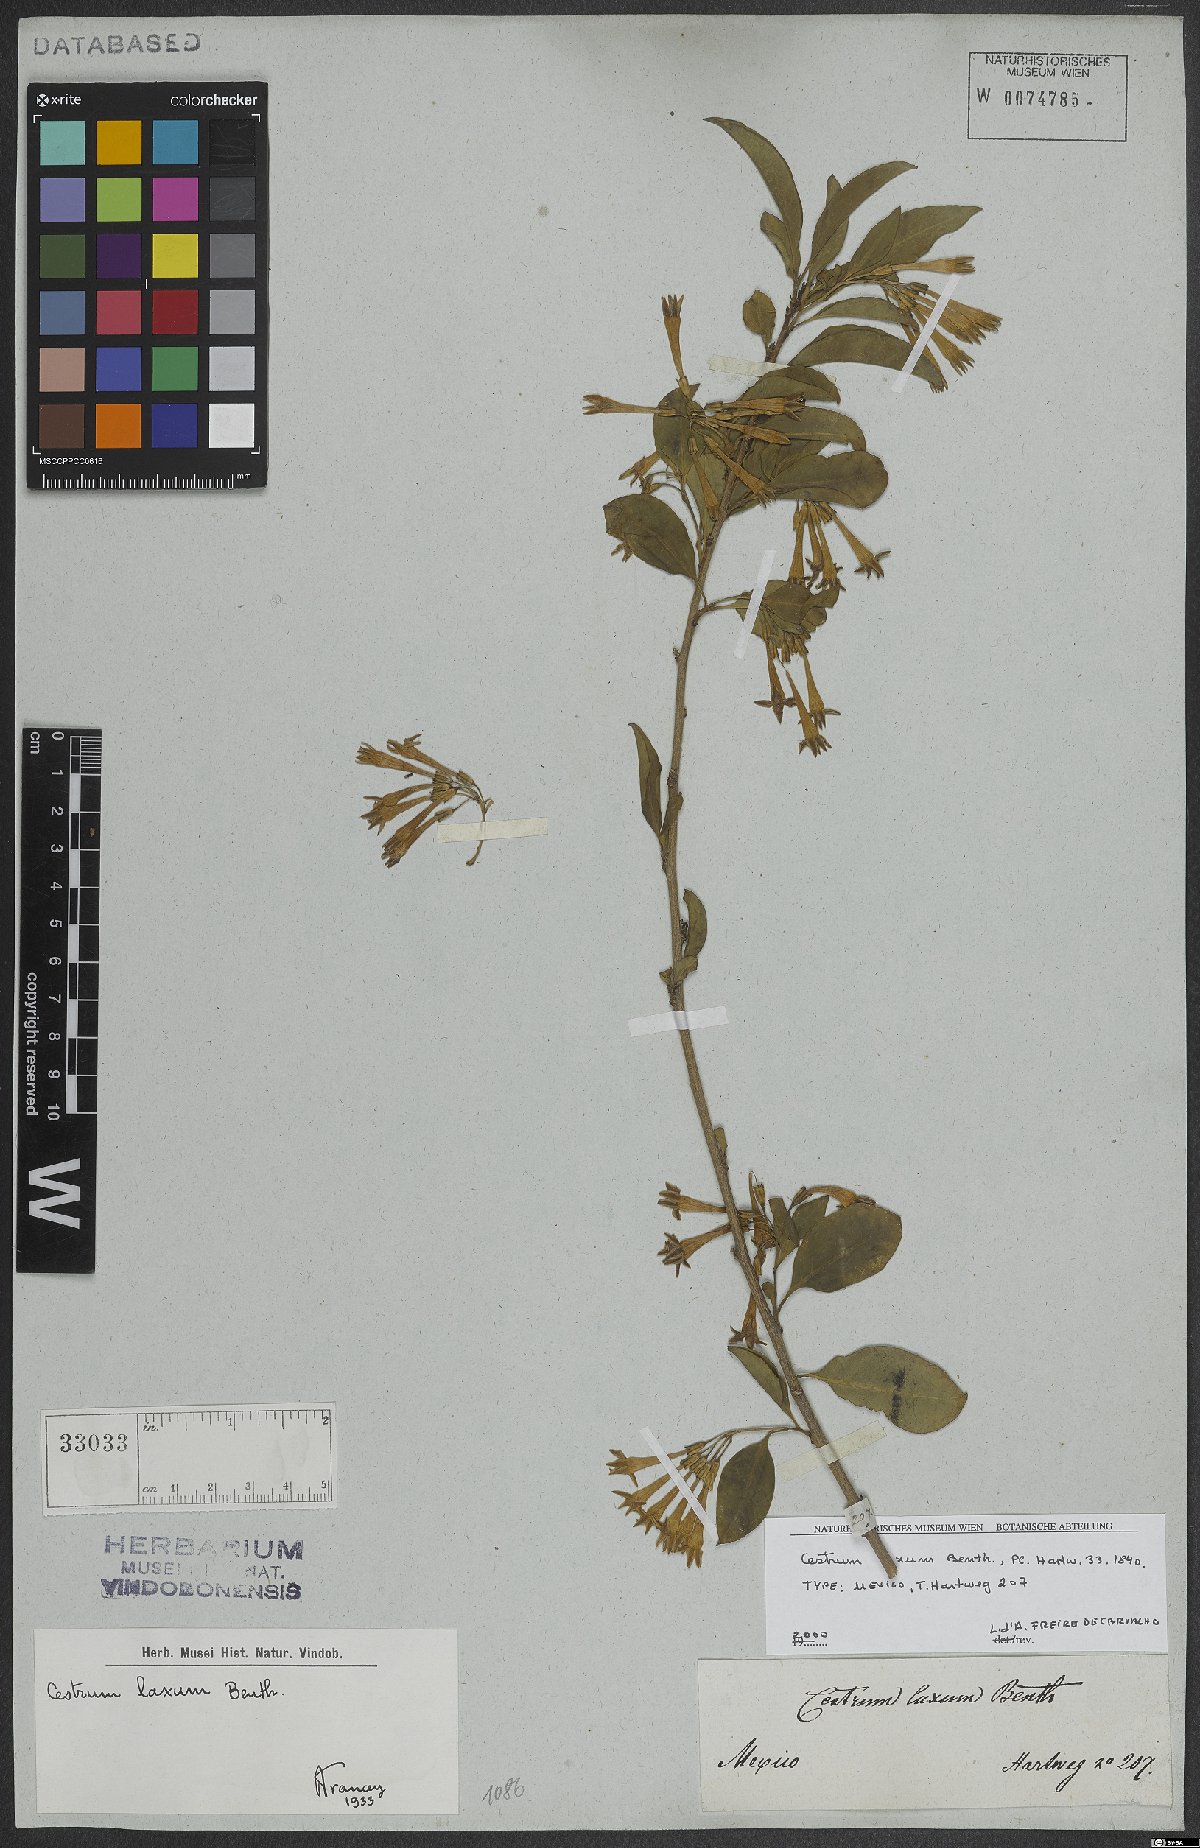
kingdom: Plantae
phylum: Tracheophyta
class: Magnoliopsida
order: Solanales
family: Solanaceae
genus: Cestrum
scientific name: Cestrum laxum
